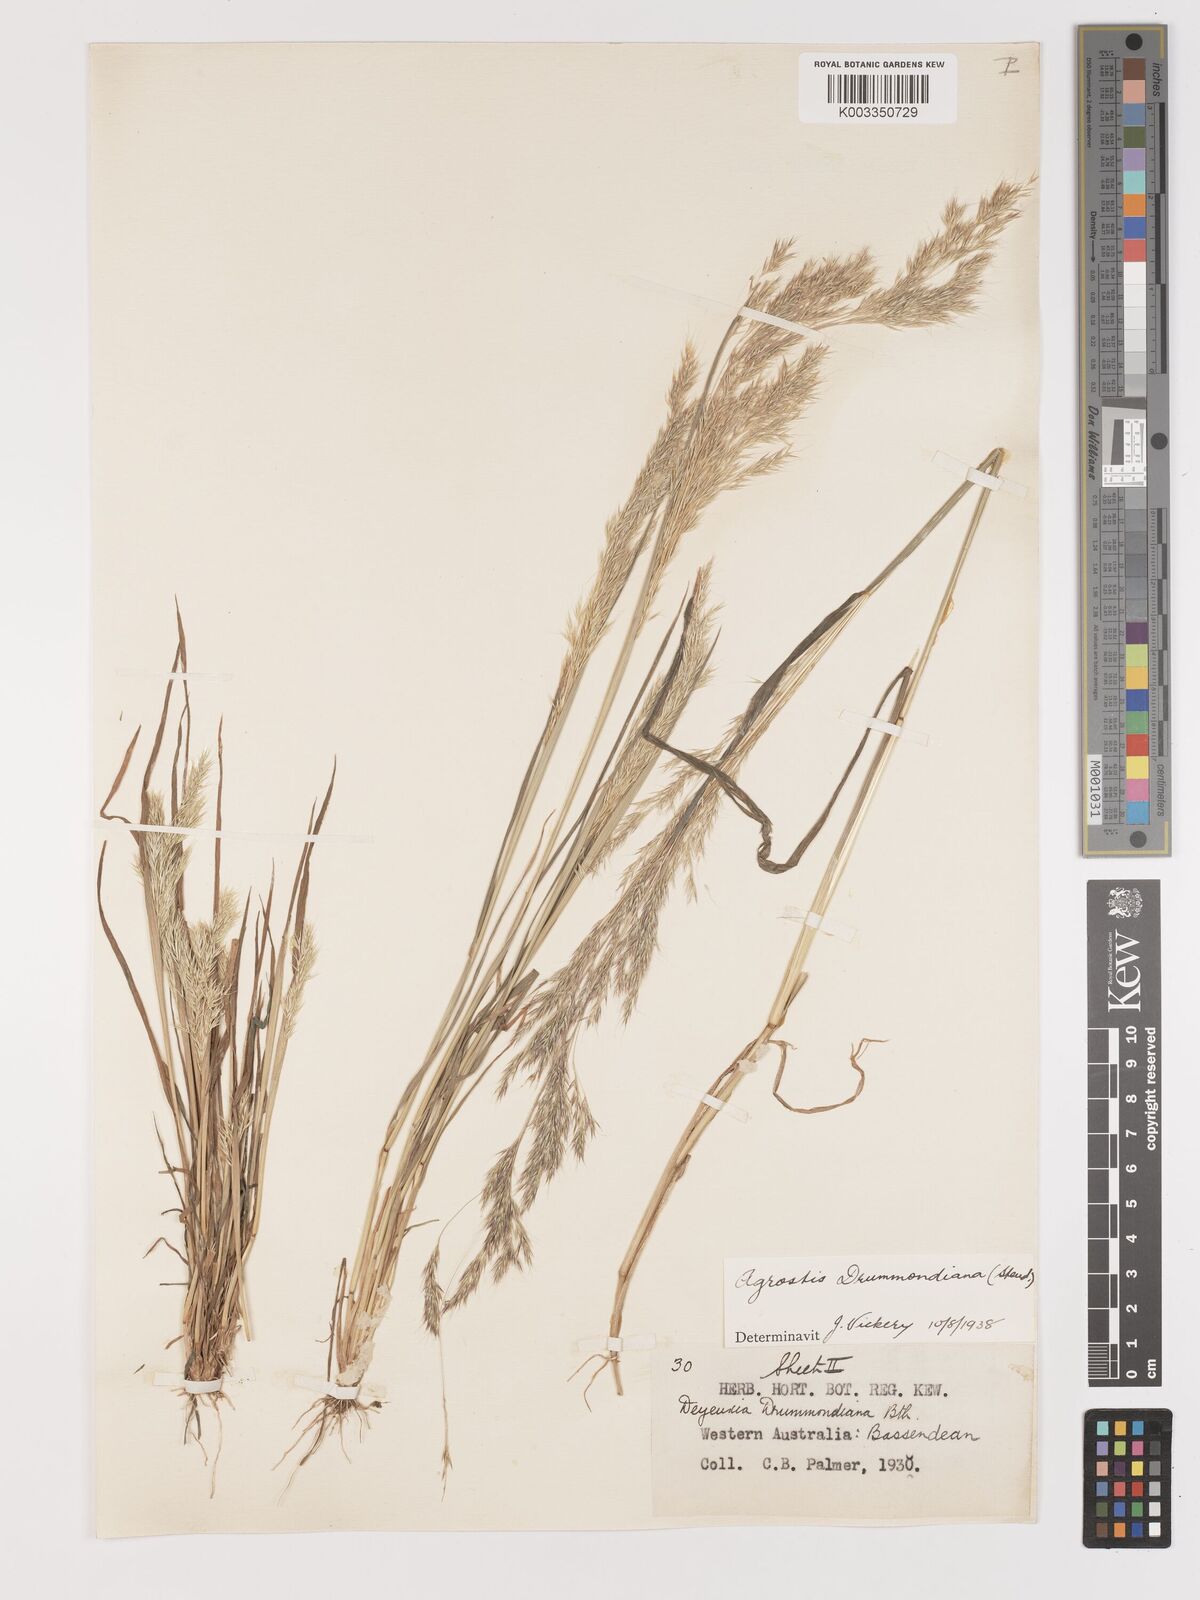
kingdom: Plantae
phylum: Tracheophyta
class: Liliopsida
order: Poales
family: Poaceae
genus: Lachnagrostis
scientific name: Lachnagrostis drummondiana
